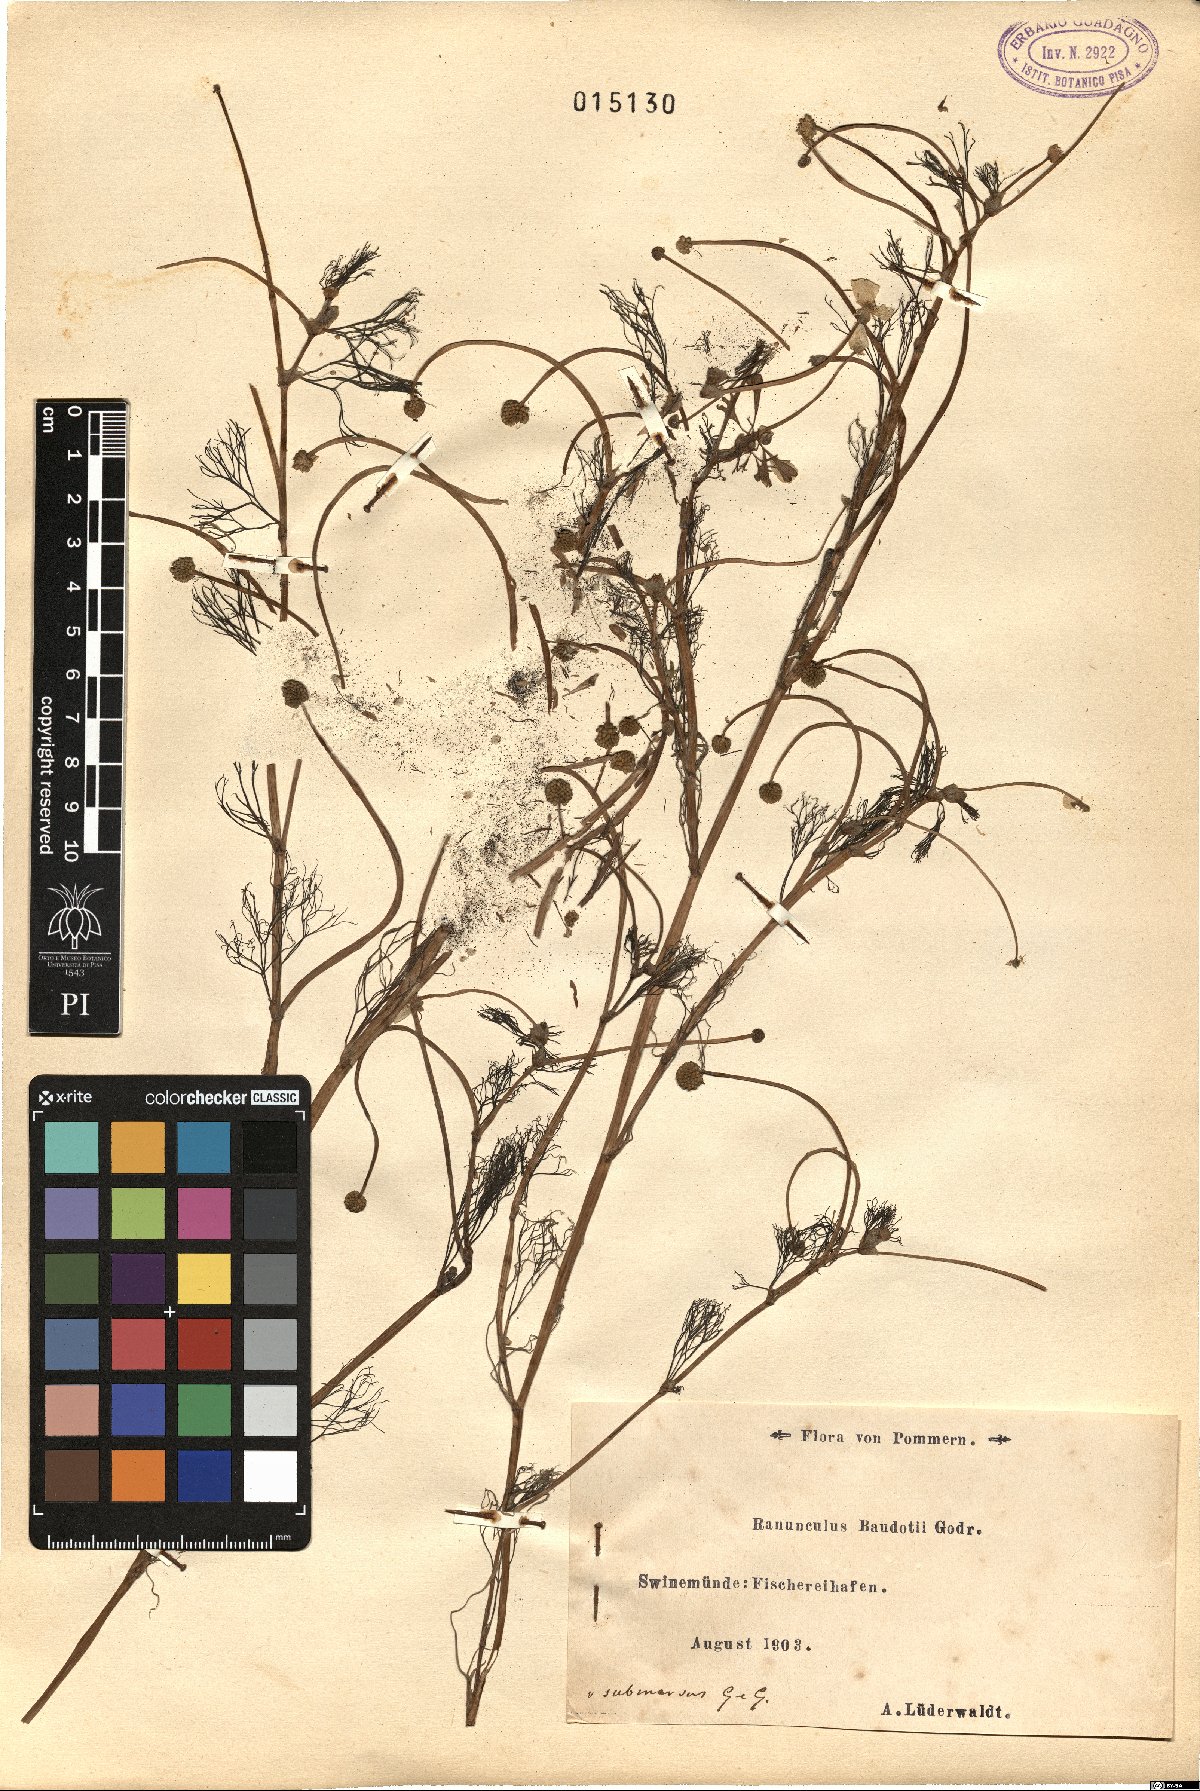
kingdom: Plantae
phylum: Tracheophyta
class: Magnoliopsida
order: Ranunculales
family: Ranunculaceae
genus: Ranunculus
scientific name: Ranunculus peltatus
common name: Pond water-crowfoot
